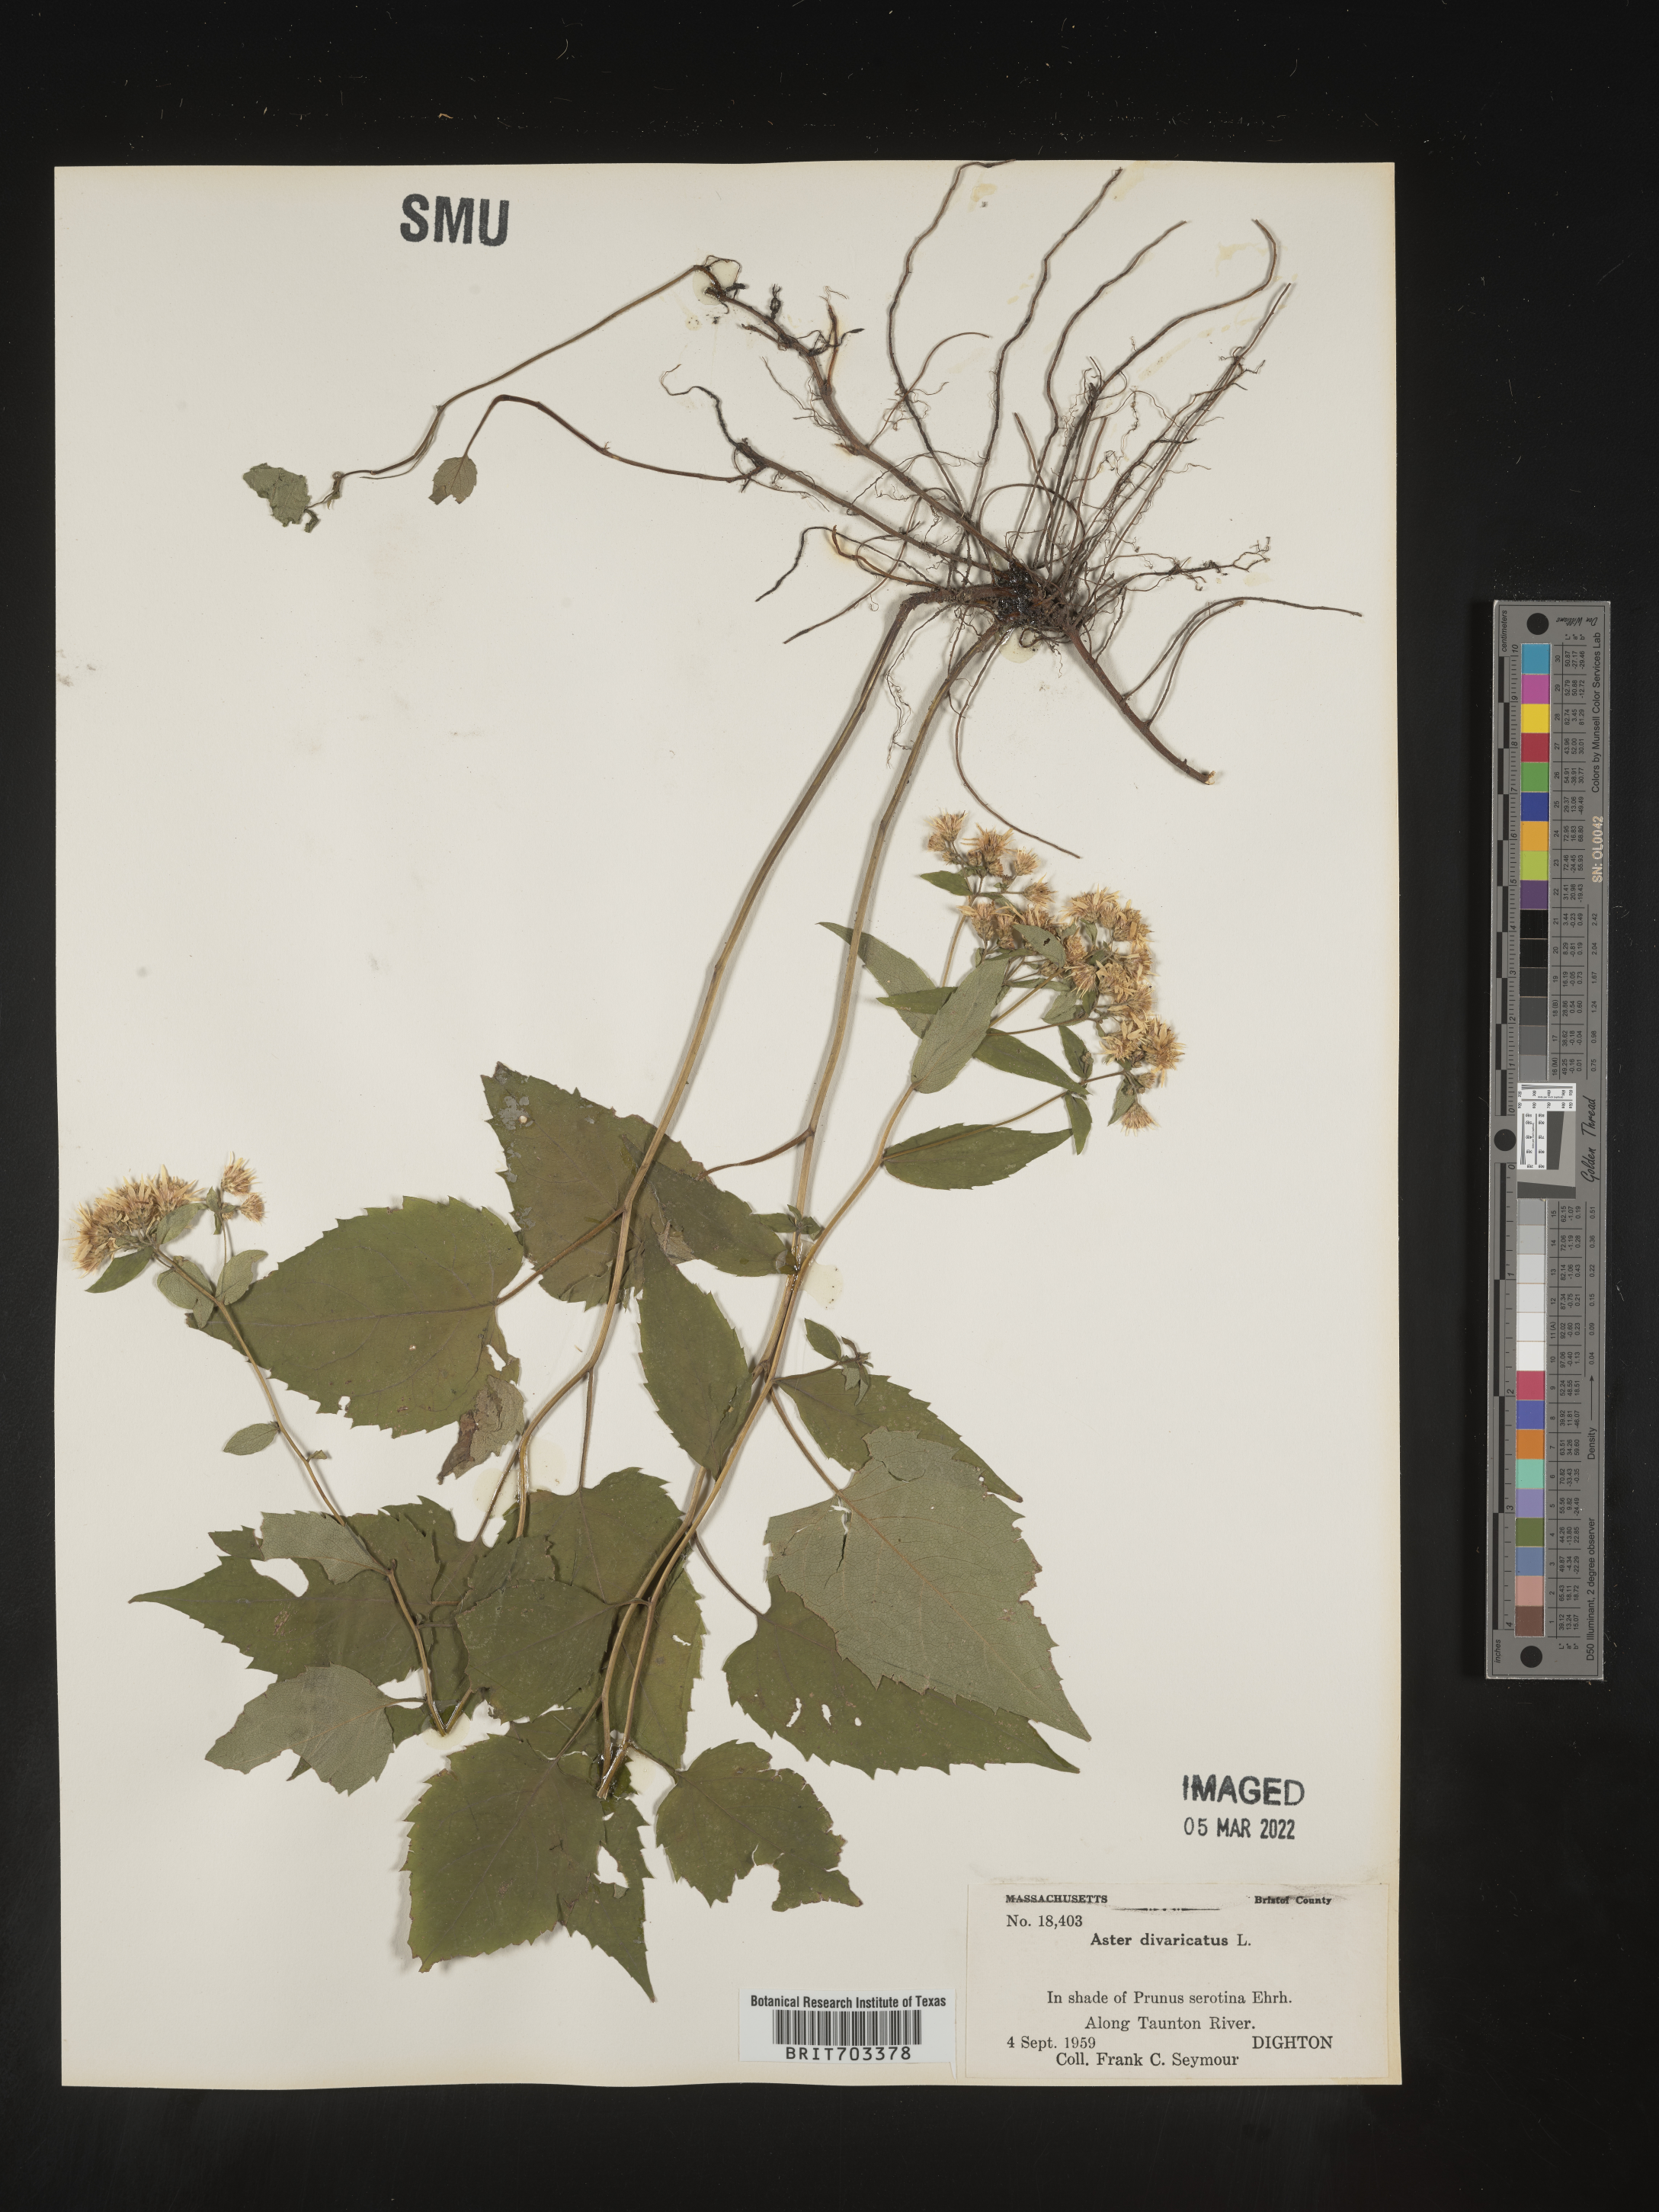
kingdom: Plantae
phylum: Tracheophyta
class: Magnoliopsida
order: Asterales
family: Asteraceae
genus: Eurybia
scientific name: Eurybia divaricata
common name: White wood aster
